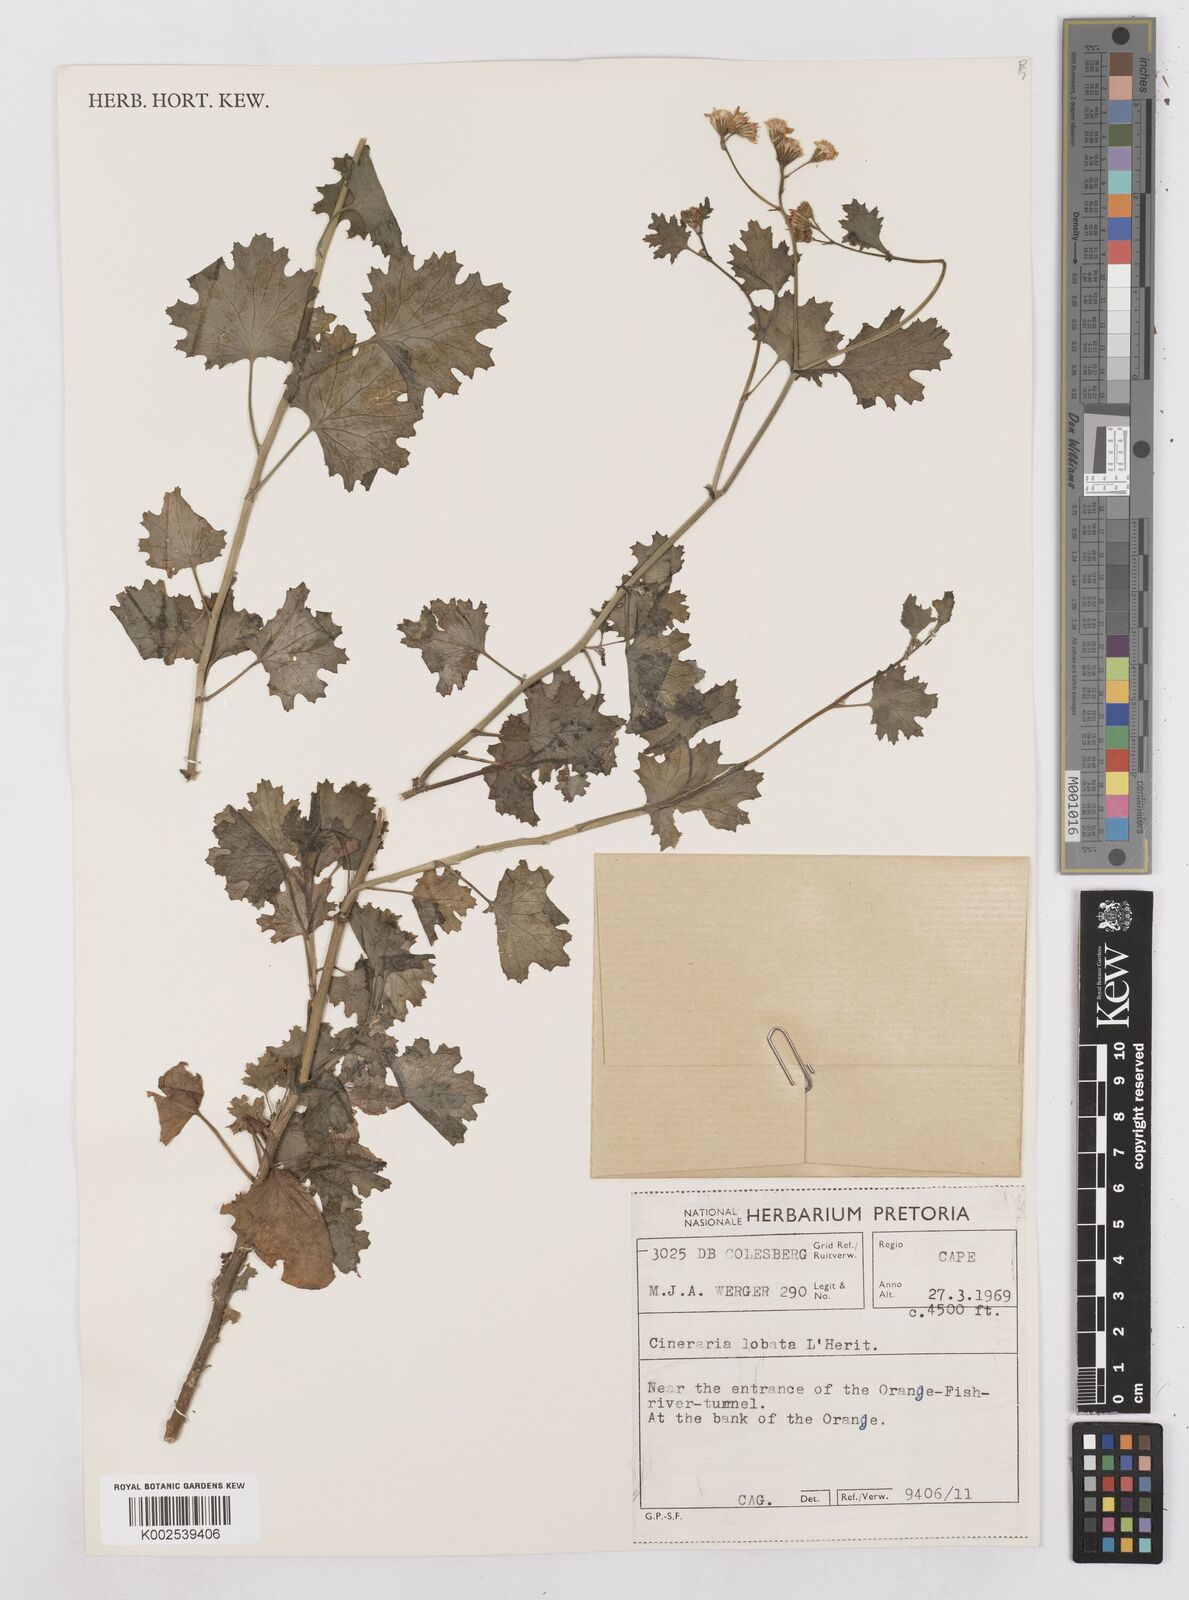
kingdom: Plantae
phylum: Tracheophyta
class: Magnoliopsida
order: Asterales
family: Asteraceae
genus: Cineraria
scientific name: Cineraria
